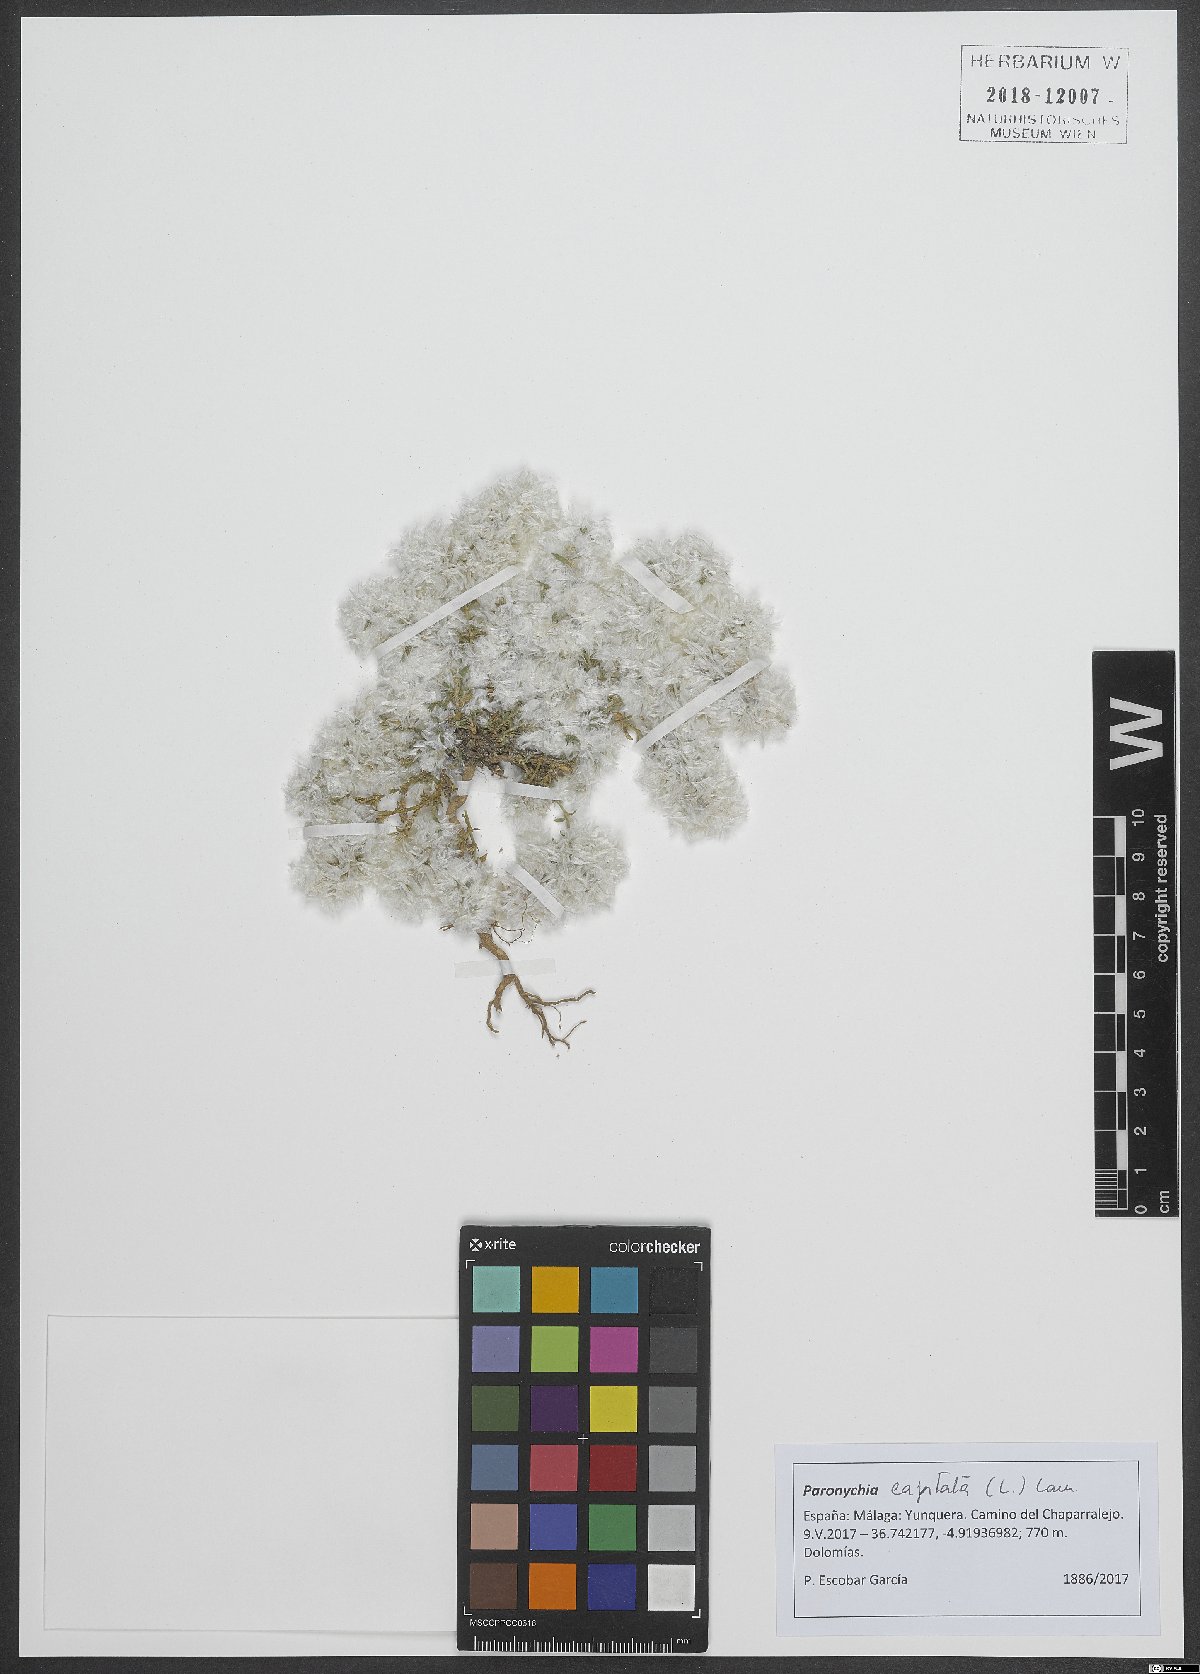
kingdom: Plantae
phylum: Tracheophyta
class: Magnoliopsida
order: Caryophyllales
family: Caryophyllaceae
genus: Paronychia
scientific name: Paronychia capitata
